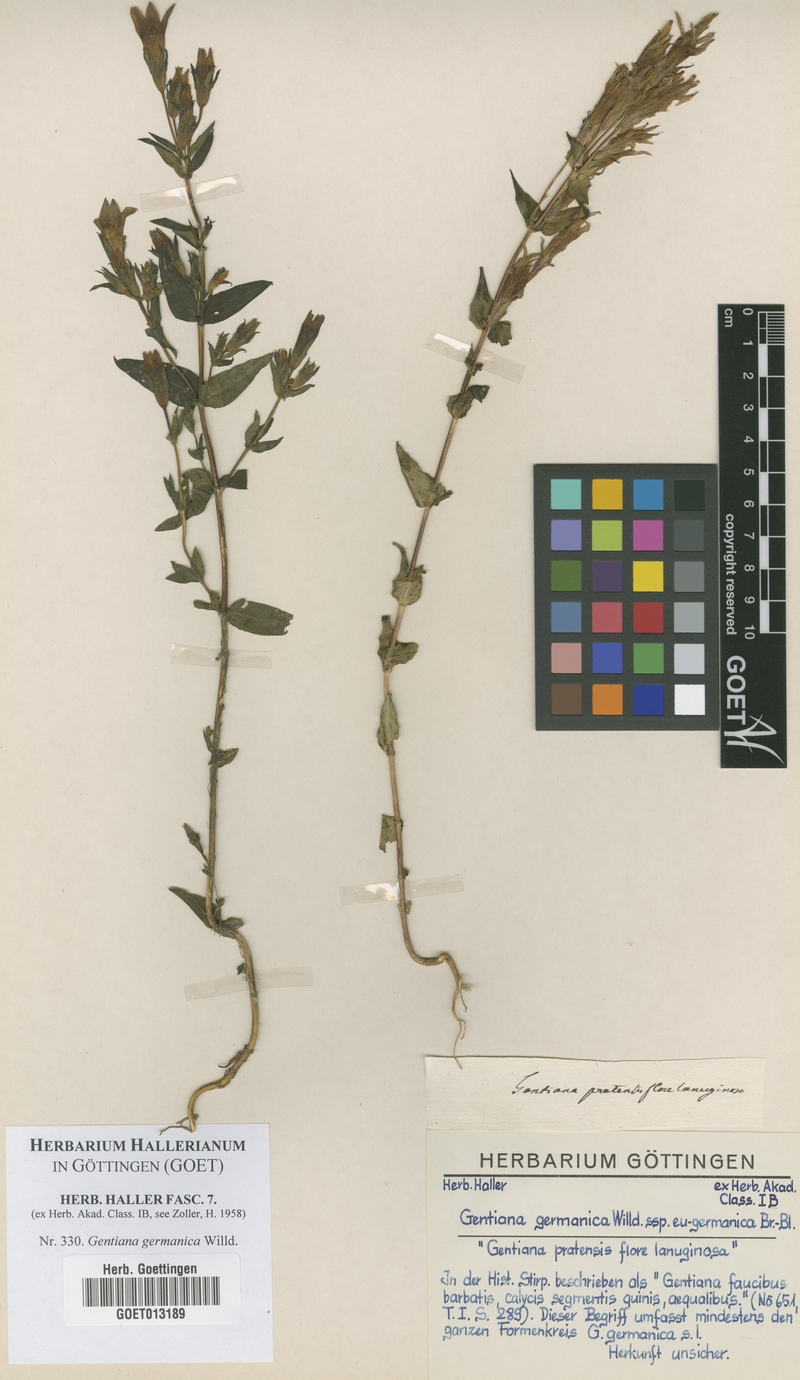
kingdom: Plantae
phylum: Tracheophyta
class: Magnoliopsida
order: Gentianales
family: Gentianaceae
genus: Gentianella
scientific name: Gentianella germanica
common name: Chiltern-gentian
